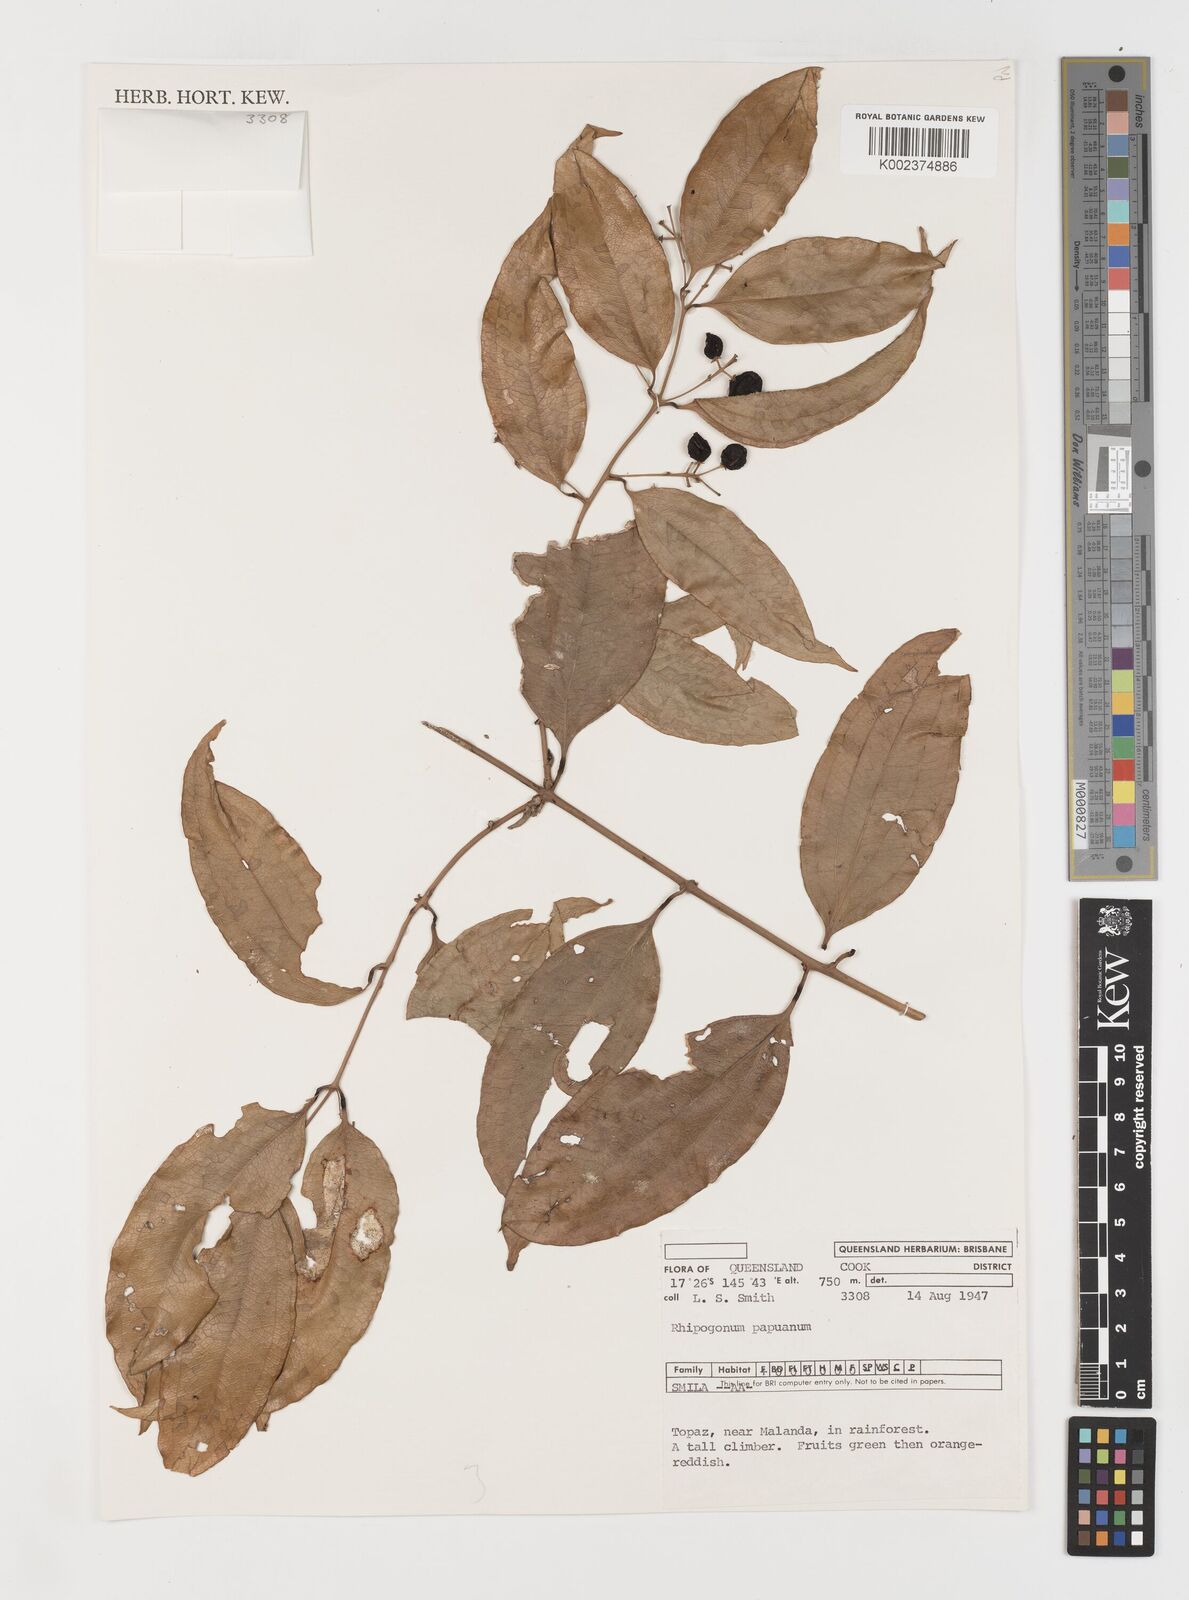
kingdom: Plantae
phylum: Tracheophyta
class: Liliopsida
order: Liliales
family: Ripogonaceae
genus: Ripogonum
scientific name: Ripogonum album
